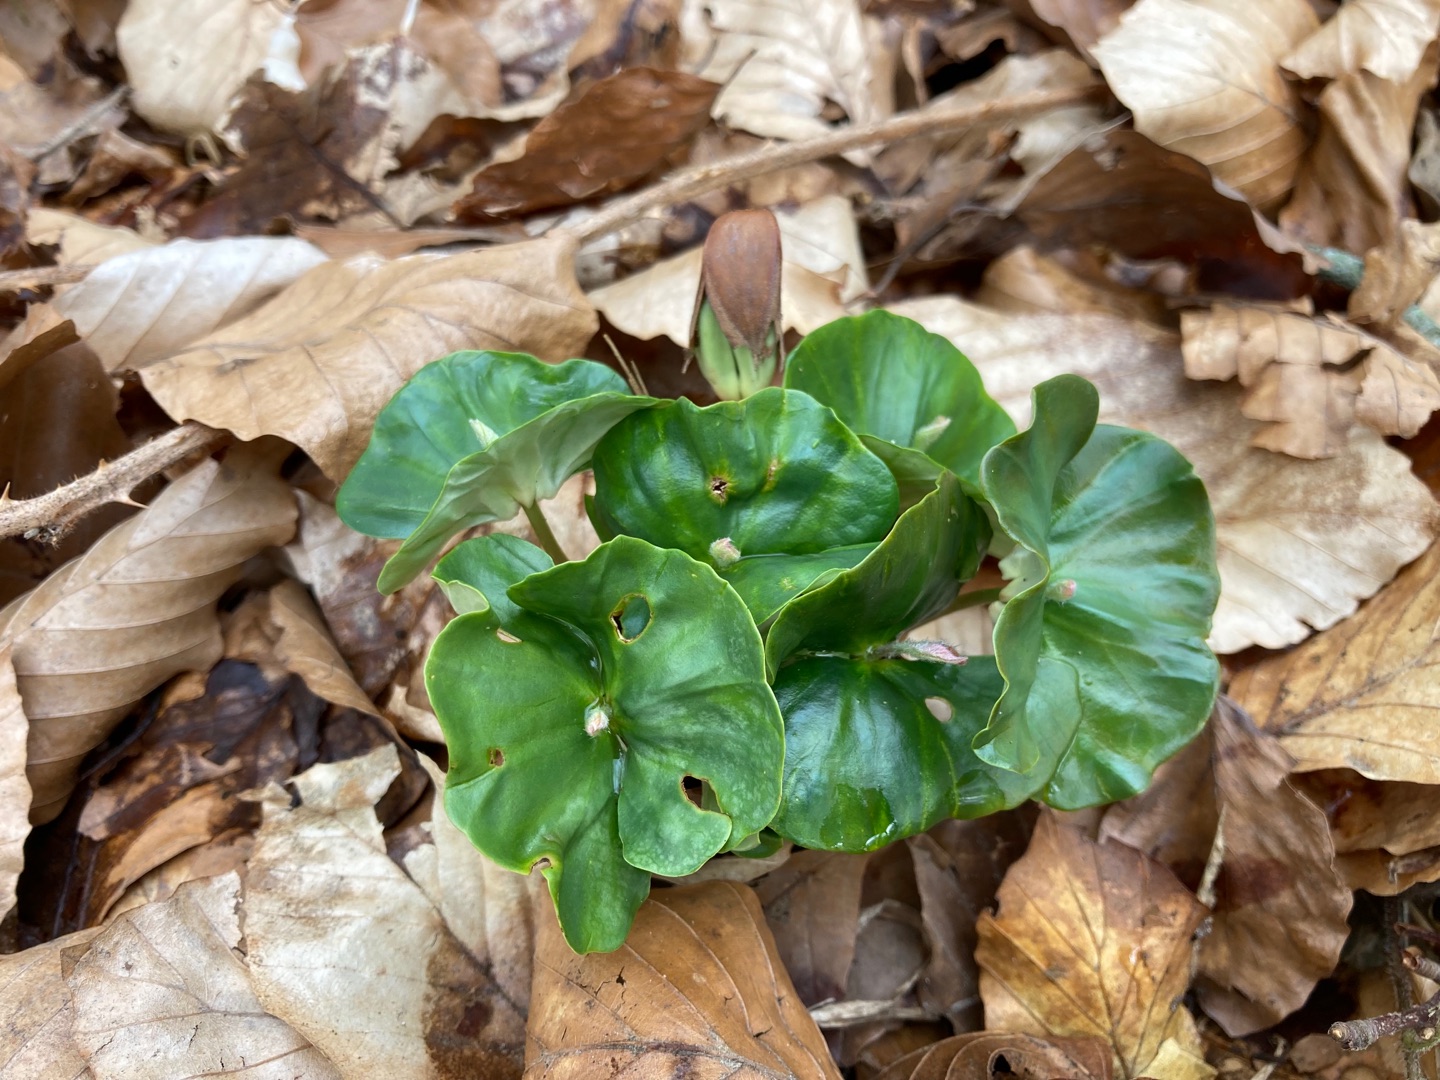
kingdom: Plantae
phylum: Tracheophyta
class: Magnoliopsida
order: Fagales
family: Fagaceae
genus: Fagus
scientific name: Fagus sylvatica
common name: Bøg
